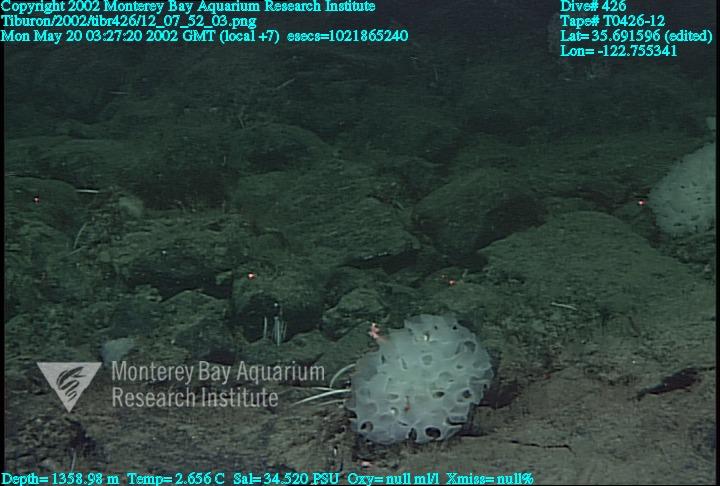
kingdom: Animalia
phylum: Porifera
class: Hexactinellida
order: Sceptrulophora
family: Farreidae
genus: Farrea
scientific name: Farrea occa
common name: Reversed glass sponge
